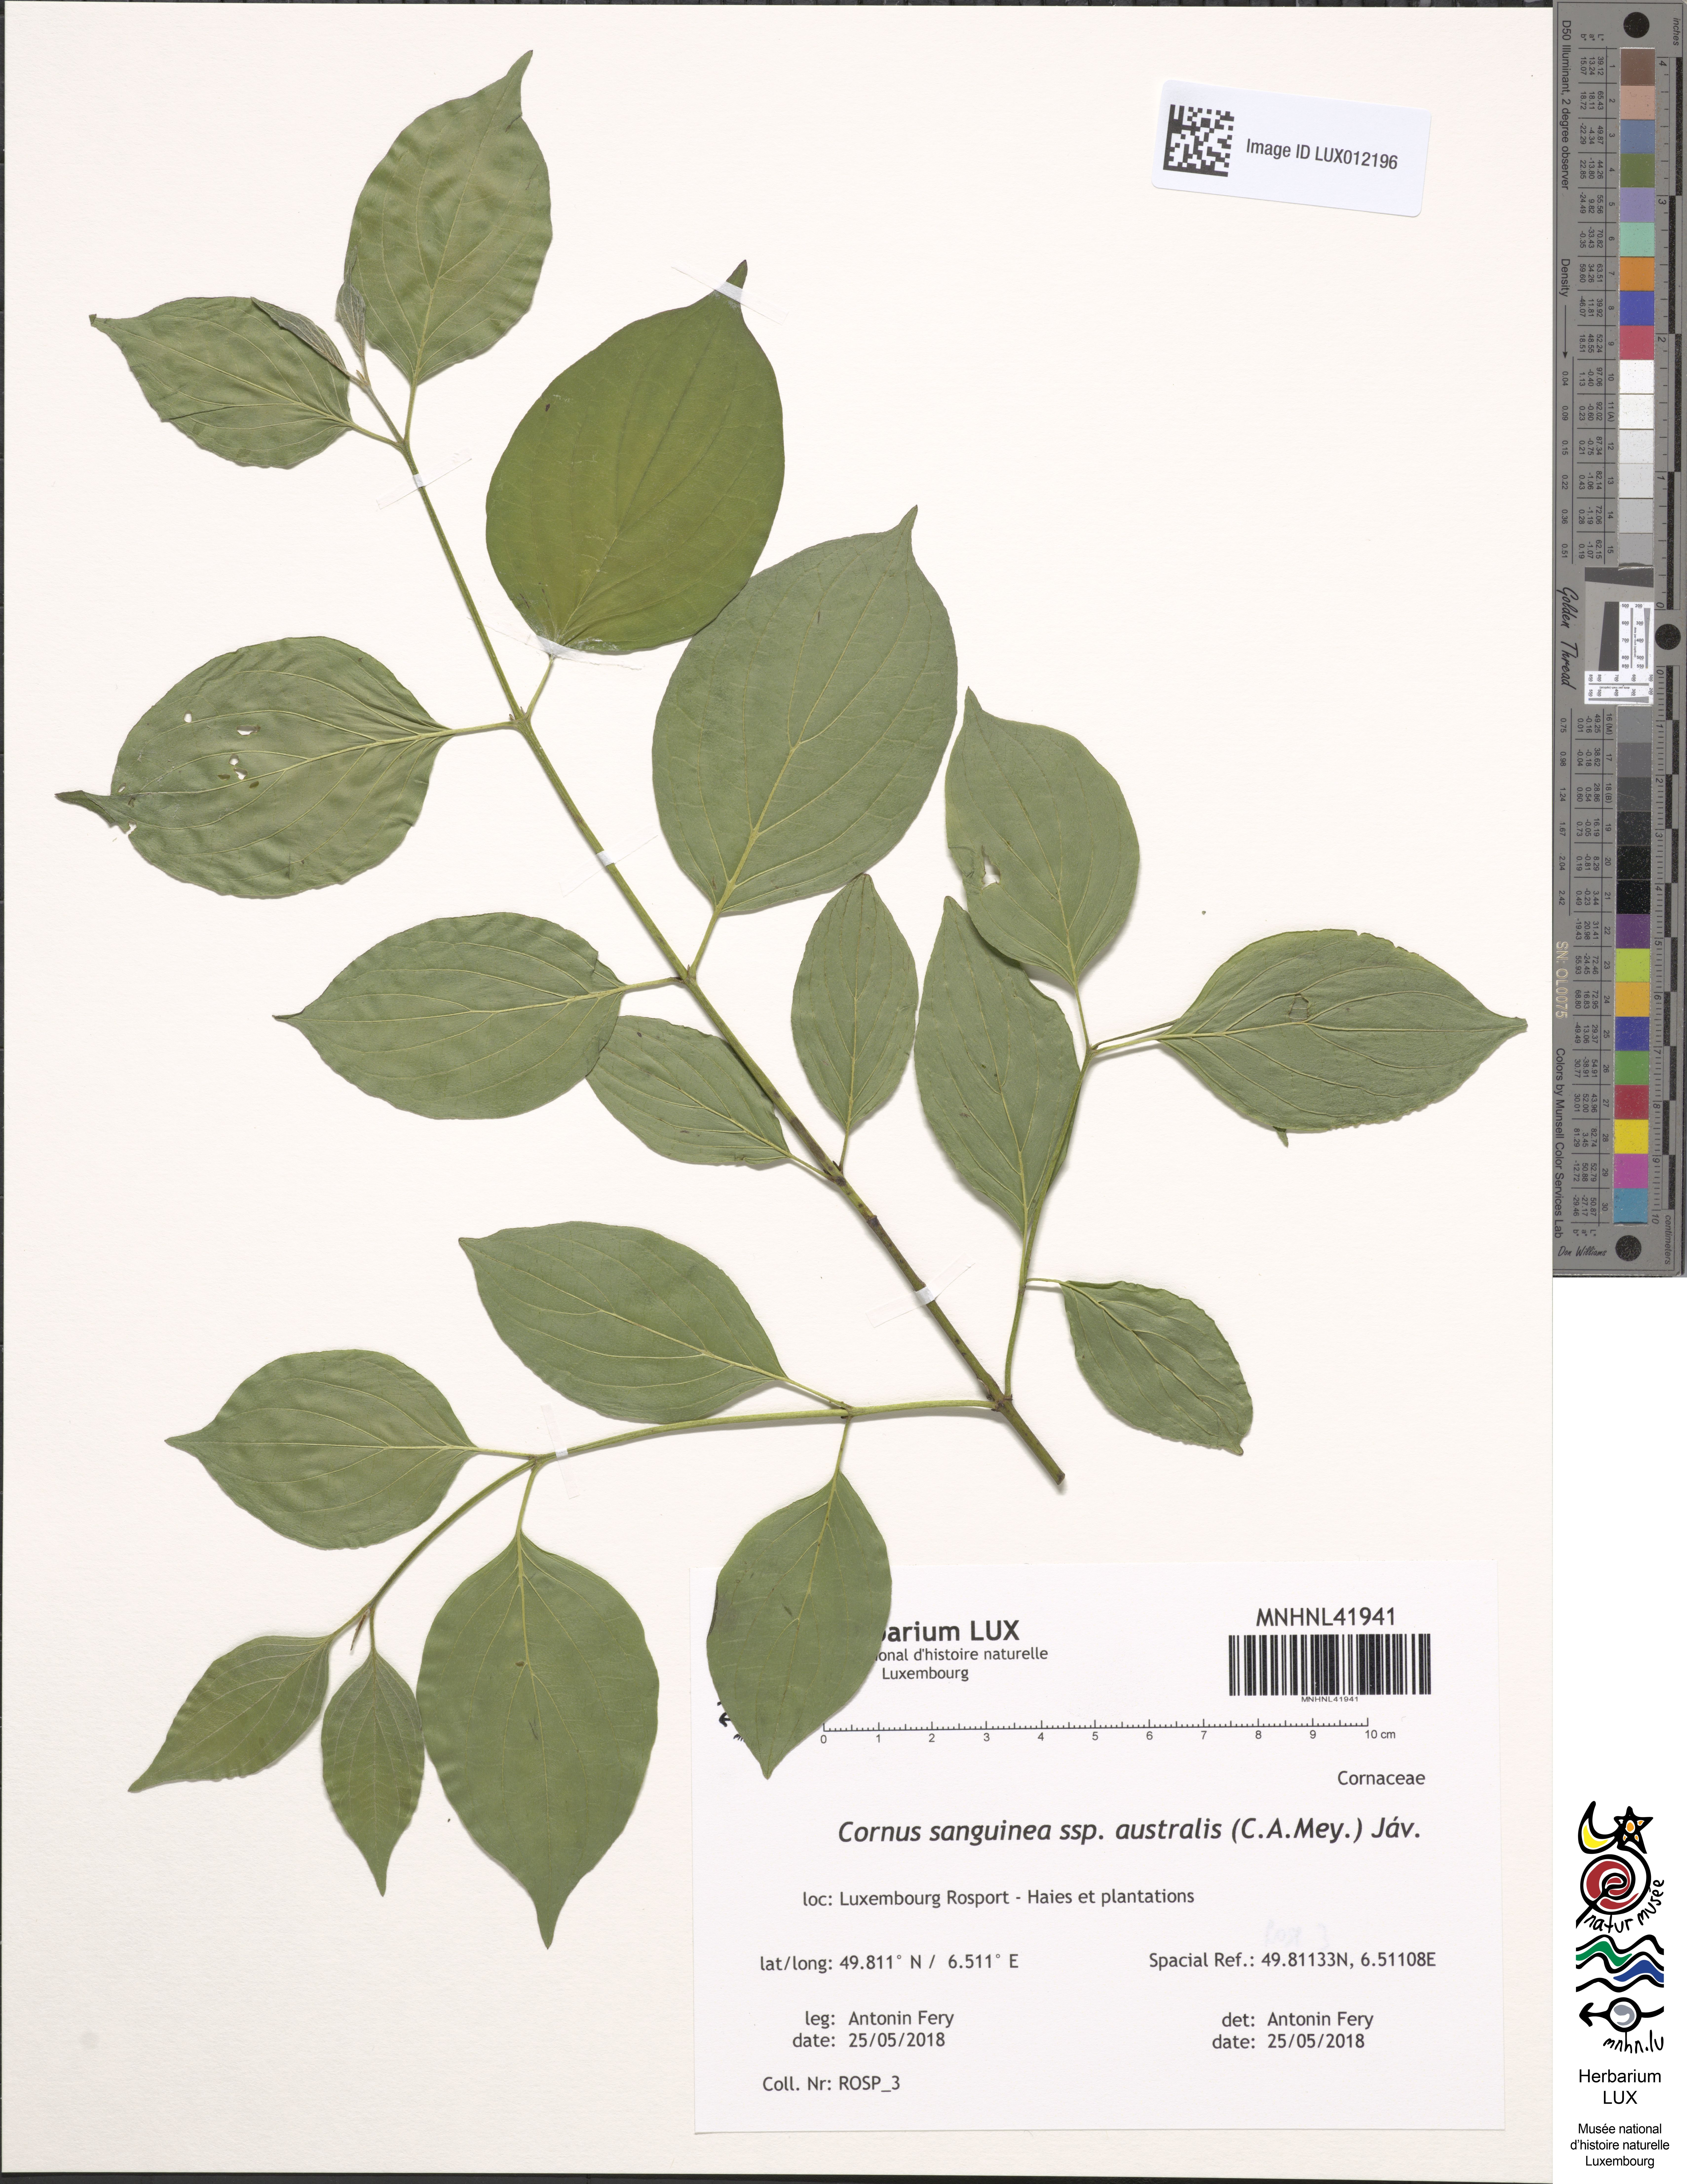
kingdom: Plantae
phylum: Tracheophyta
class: Magnoliopsida
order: Cornales
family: Cornaceae
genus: Cornus
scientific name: Cornus sanguinea
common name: Dogwood
